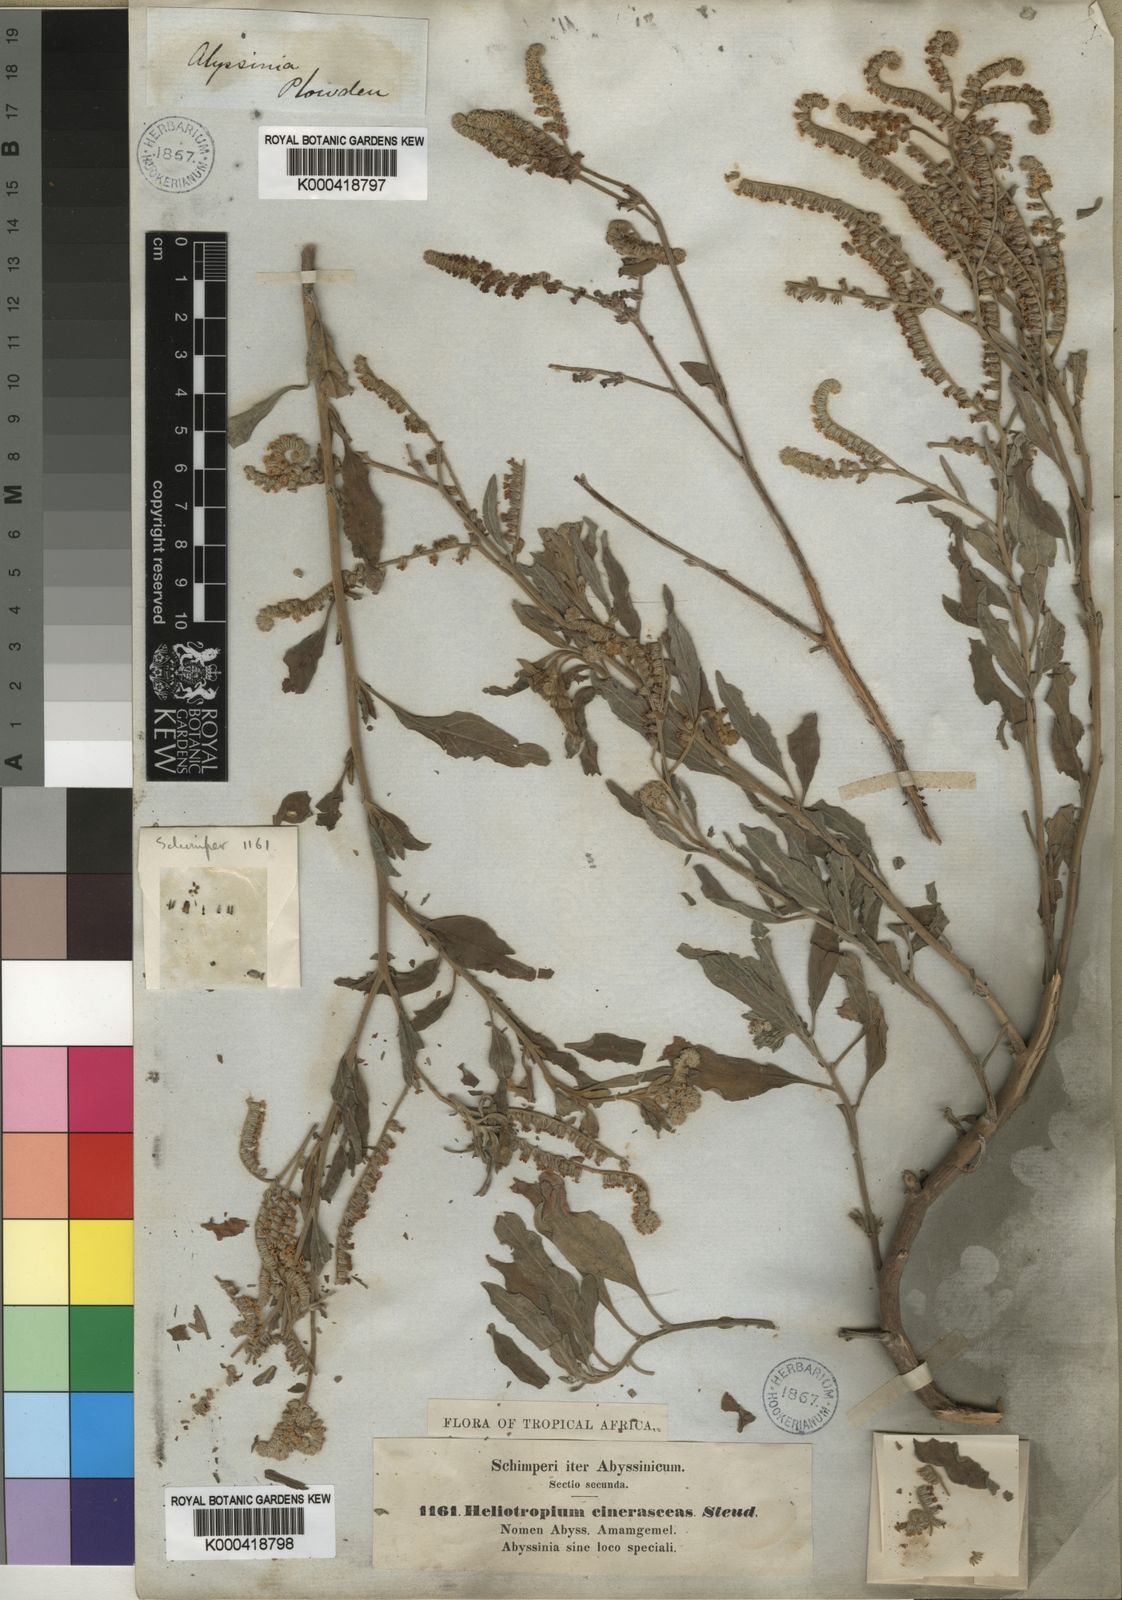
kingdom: Plantae
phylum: Tracheophyta
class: Magnoliopsida
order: Boraginales
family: Heliotropiaceae
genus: Heliotropium
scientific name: Heliotropium aegyptiacum
